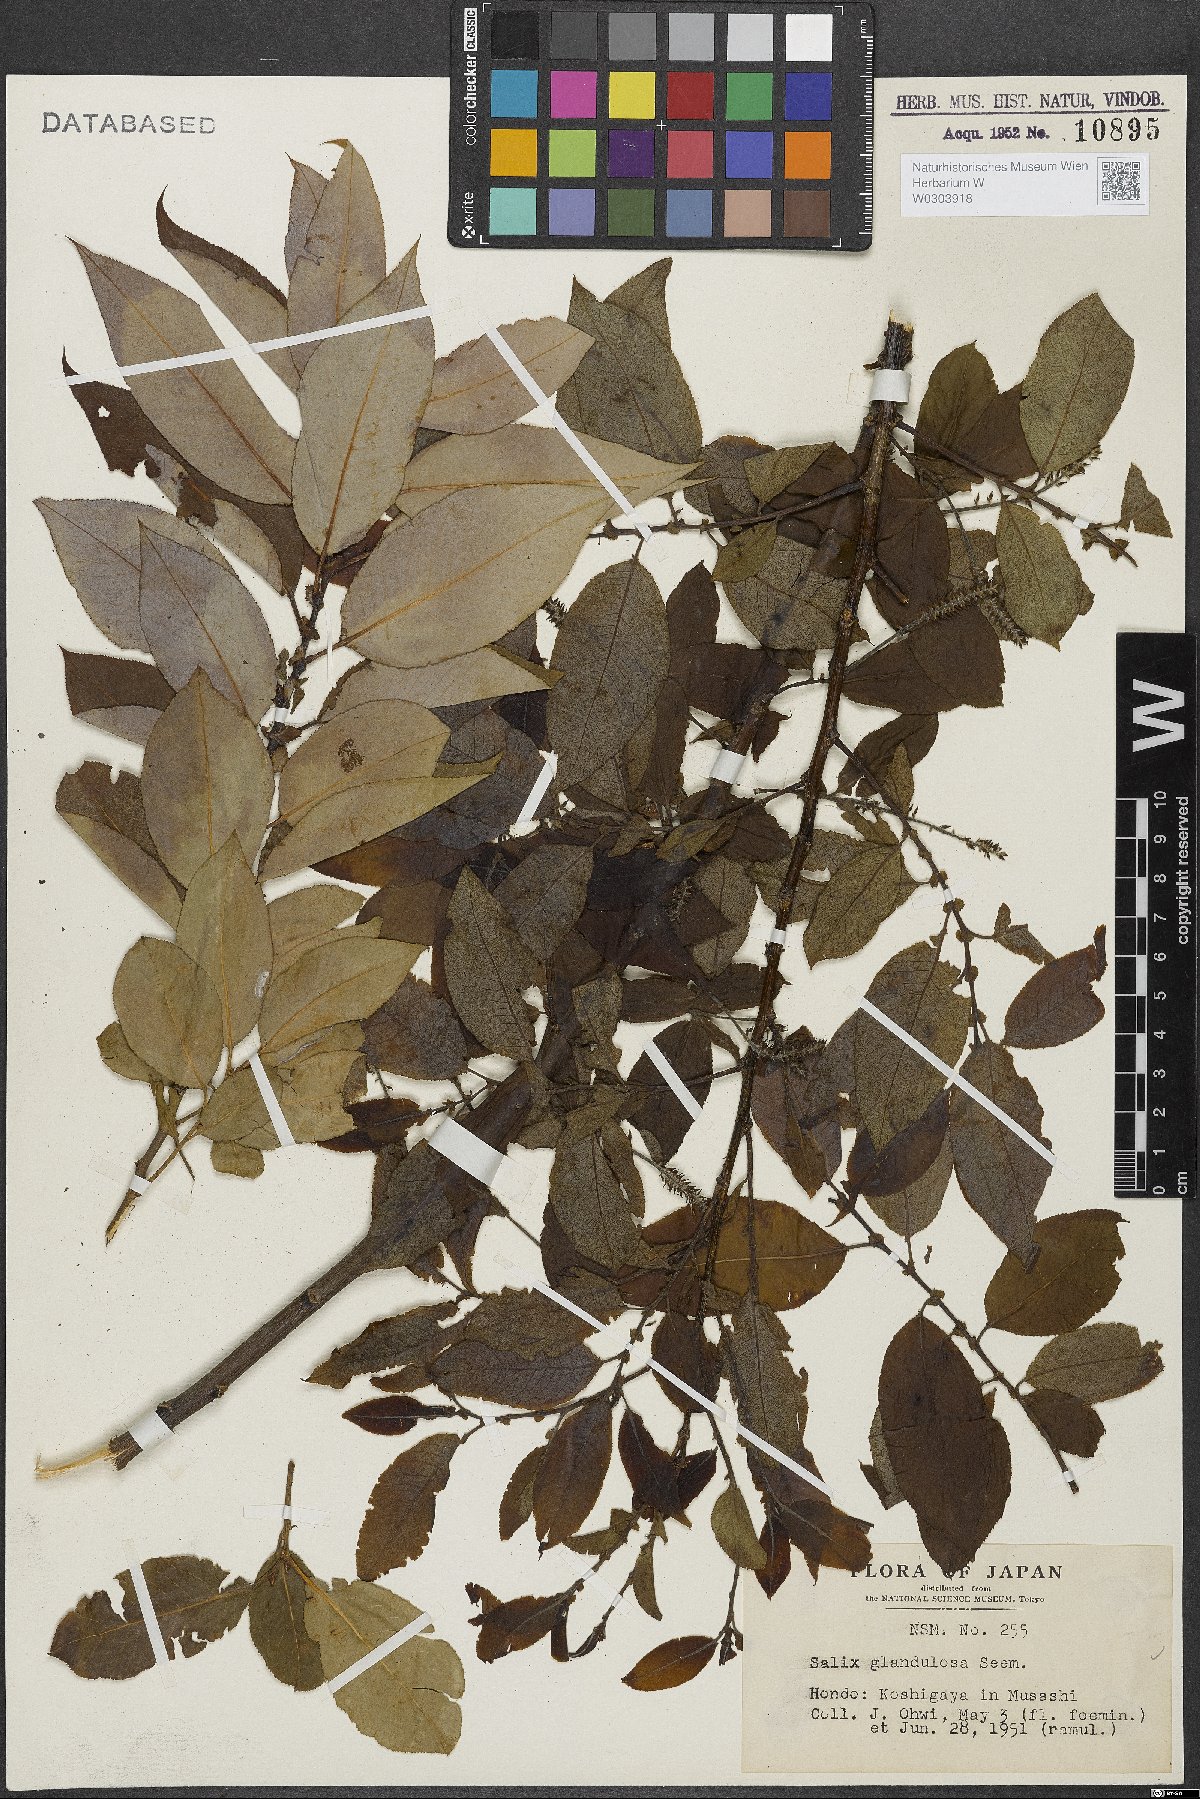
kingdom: Plantae
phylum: Tracheophyta
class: Magnoliopsida
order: Malpighiales
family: Salicaceae
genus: Salix
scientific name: Salix chaenomeloides
